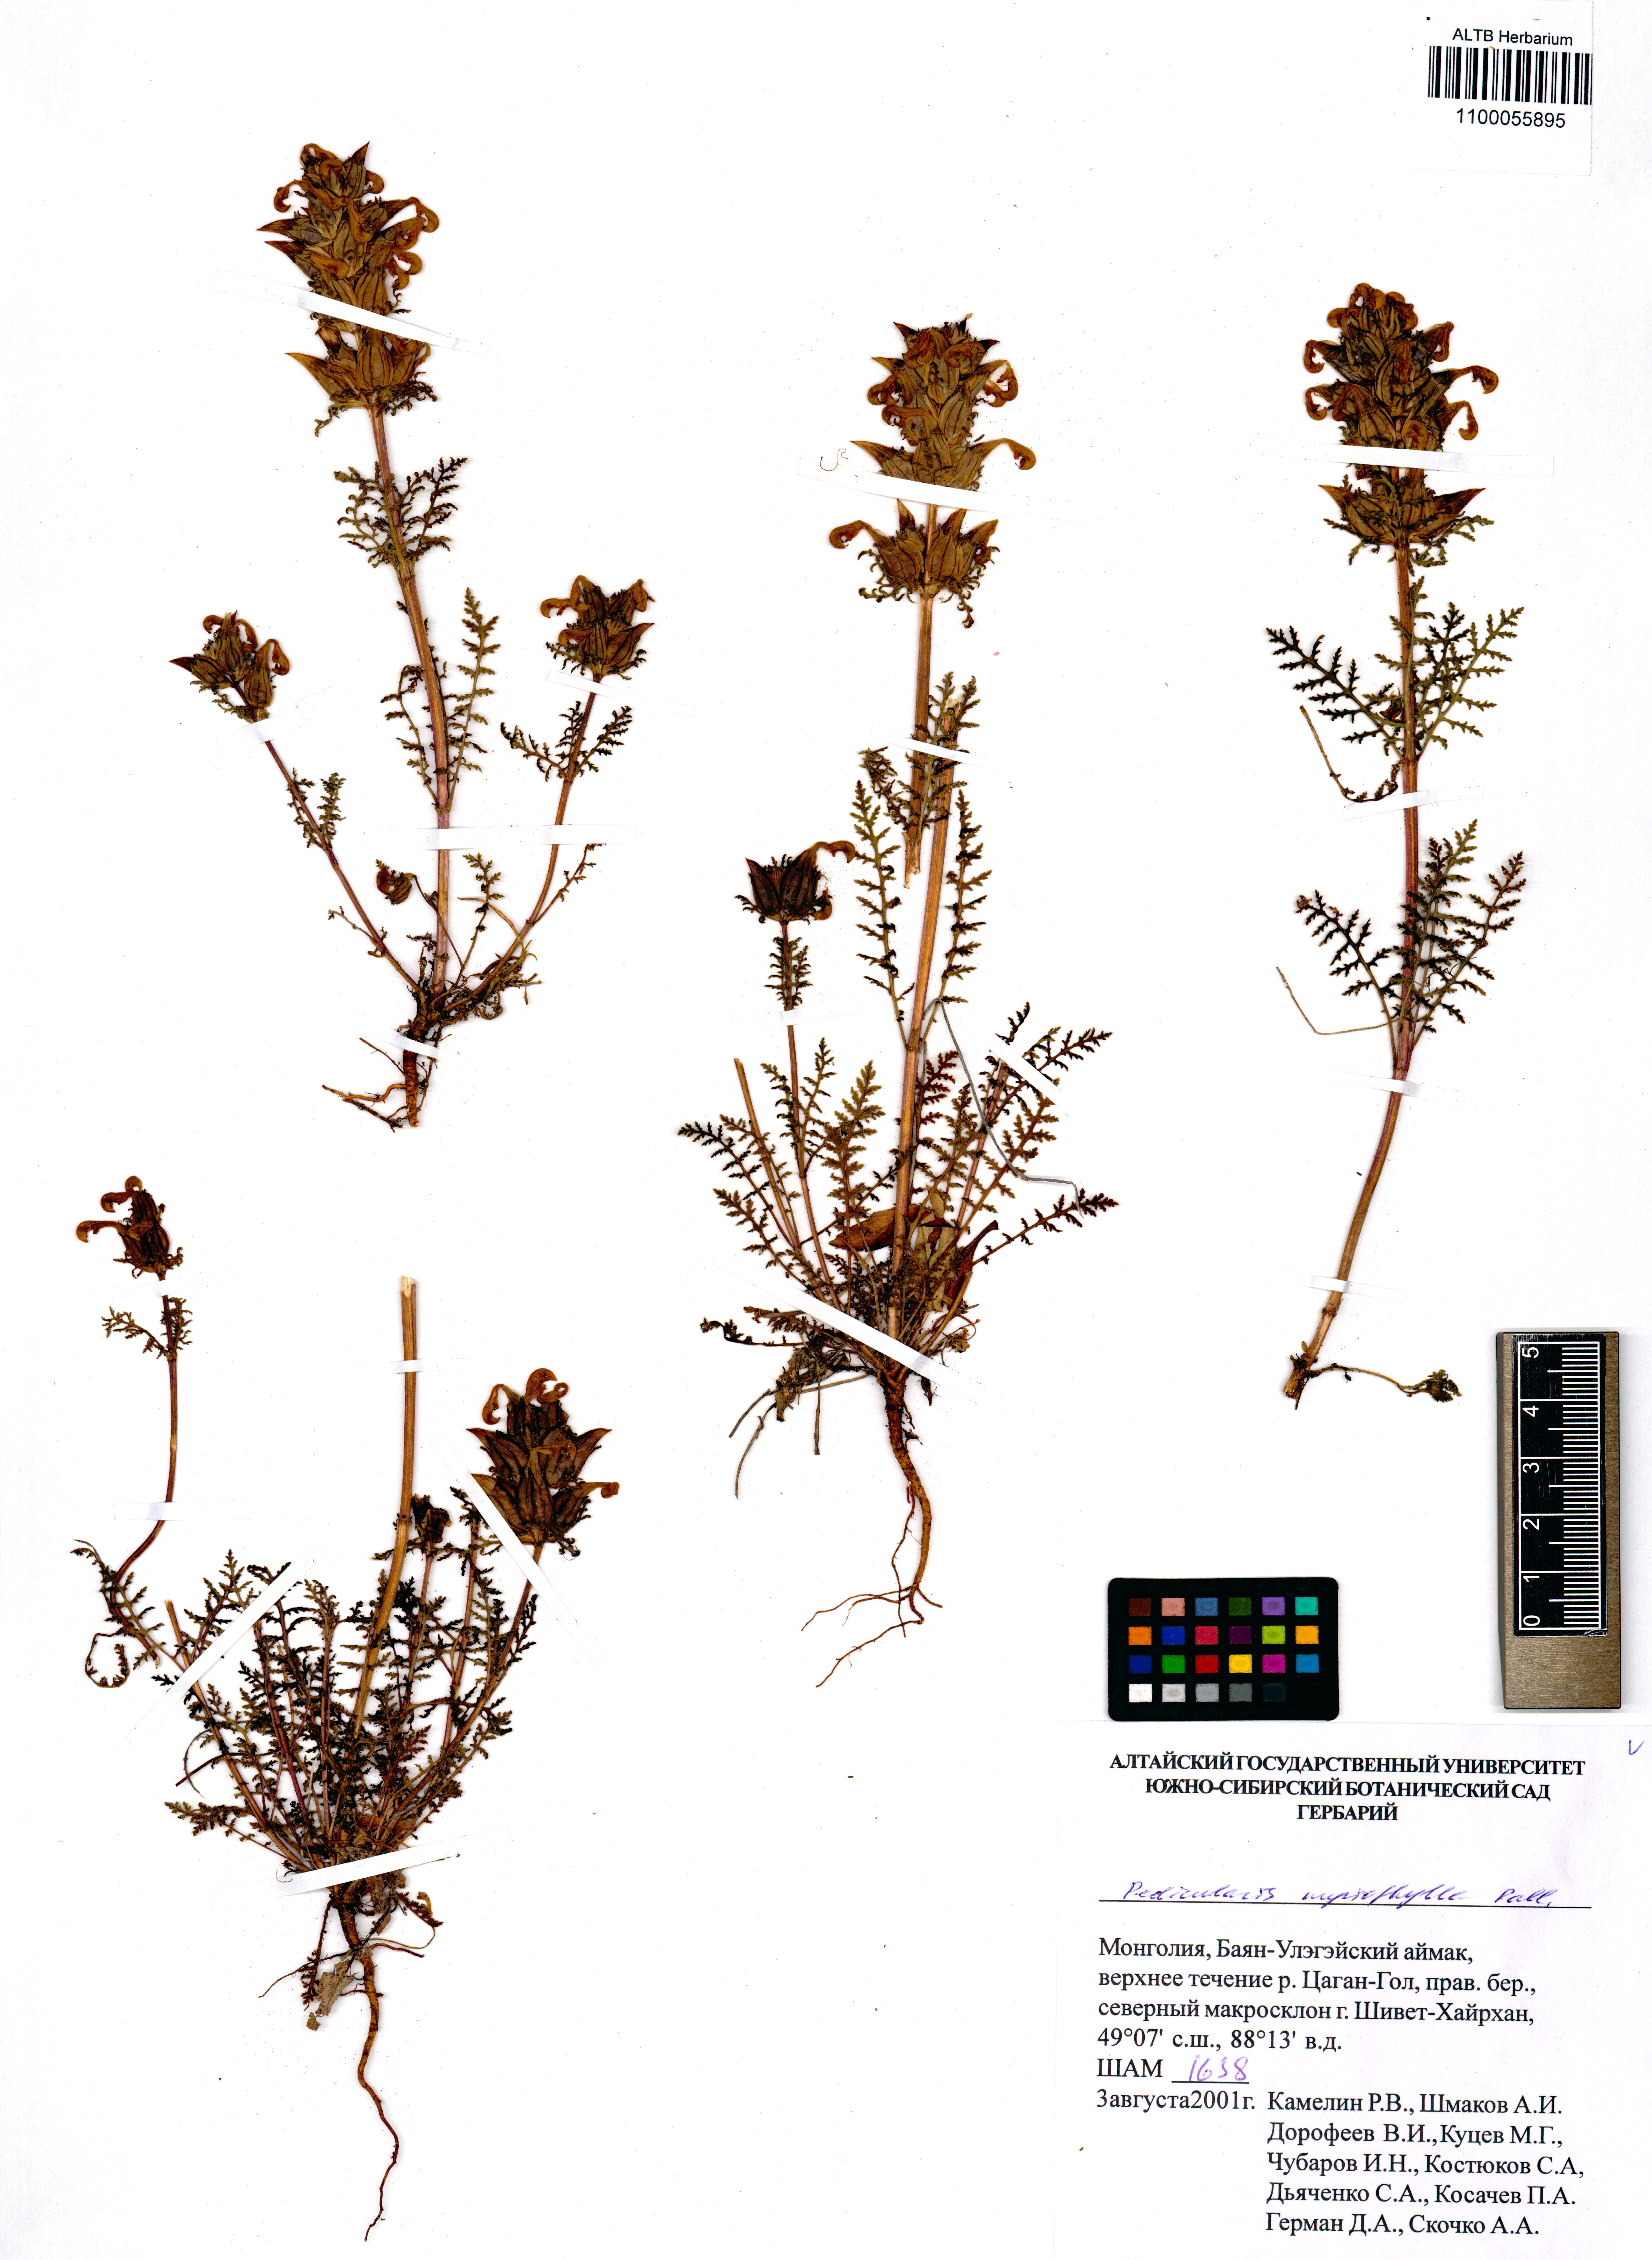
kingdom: Plantae
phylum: Tracheophyta
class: Magnoliopsida
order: Lamiales
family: Orobanchaceae
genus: Pedicularis
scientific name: Pedicularis myriophylla
